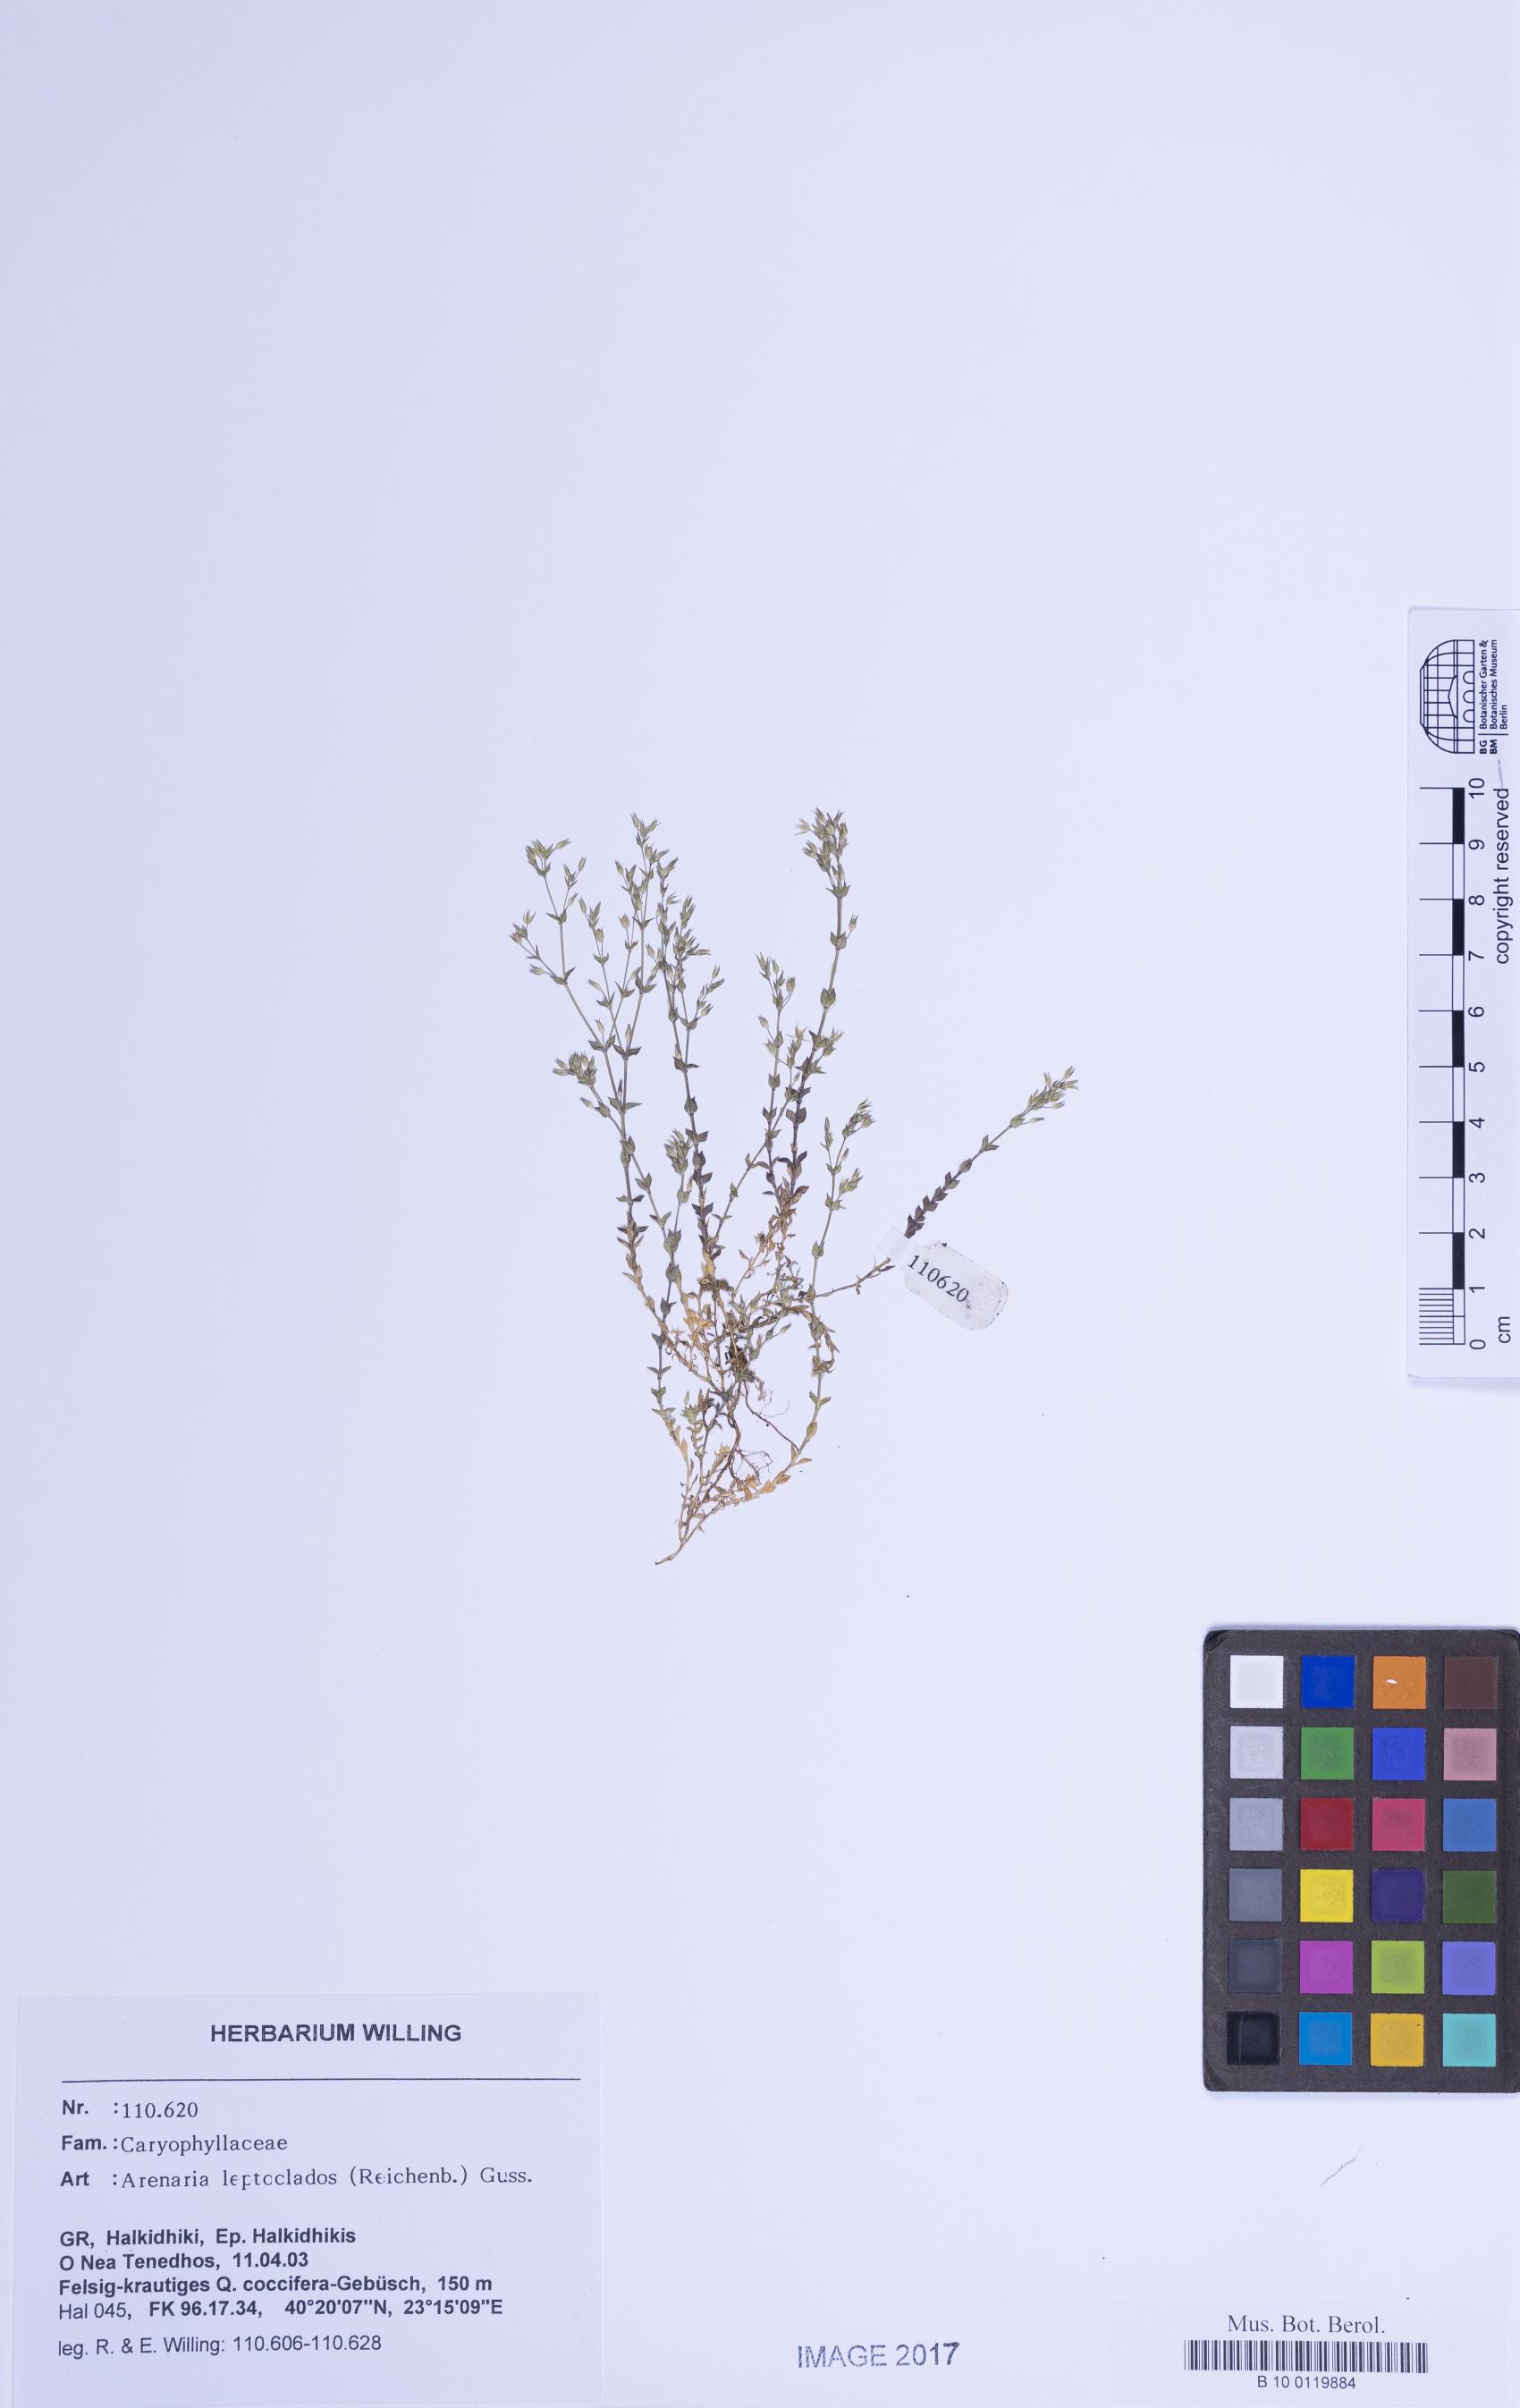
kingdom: Plantae
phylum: Tracheophyta
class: Magnoliopsida
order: Caryophyllales
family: Caryophyllaceae
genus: Arenaria
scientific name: Arenaria leptoclados
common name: Thyme-leaved sandwort
